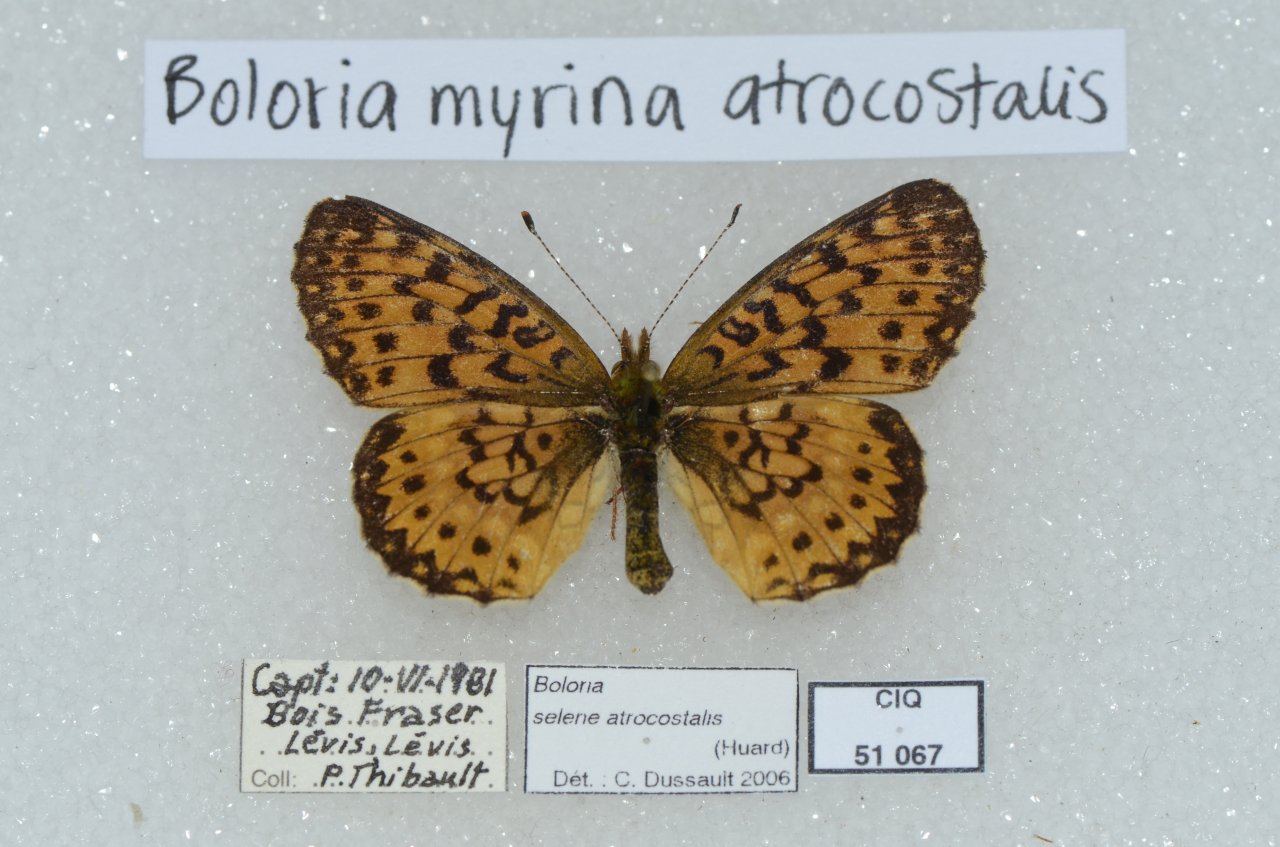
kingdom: Animalia
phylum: Arthropoda
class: Insecta
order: Lepidoptera
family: Nymphalidae
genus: Boloria
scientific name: Boloria selene
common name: Silver-bordered Fritillary
